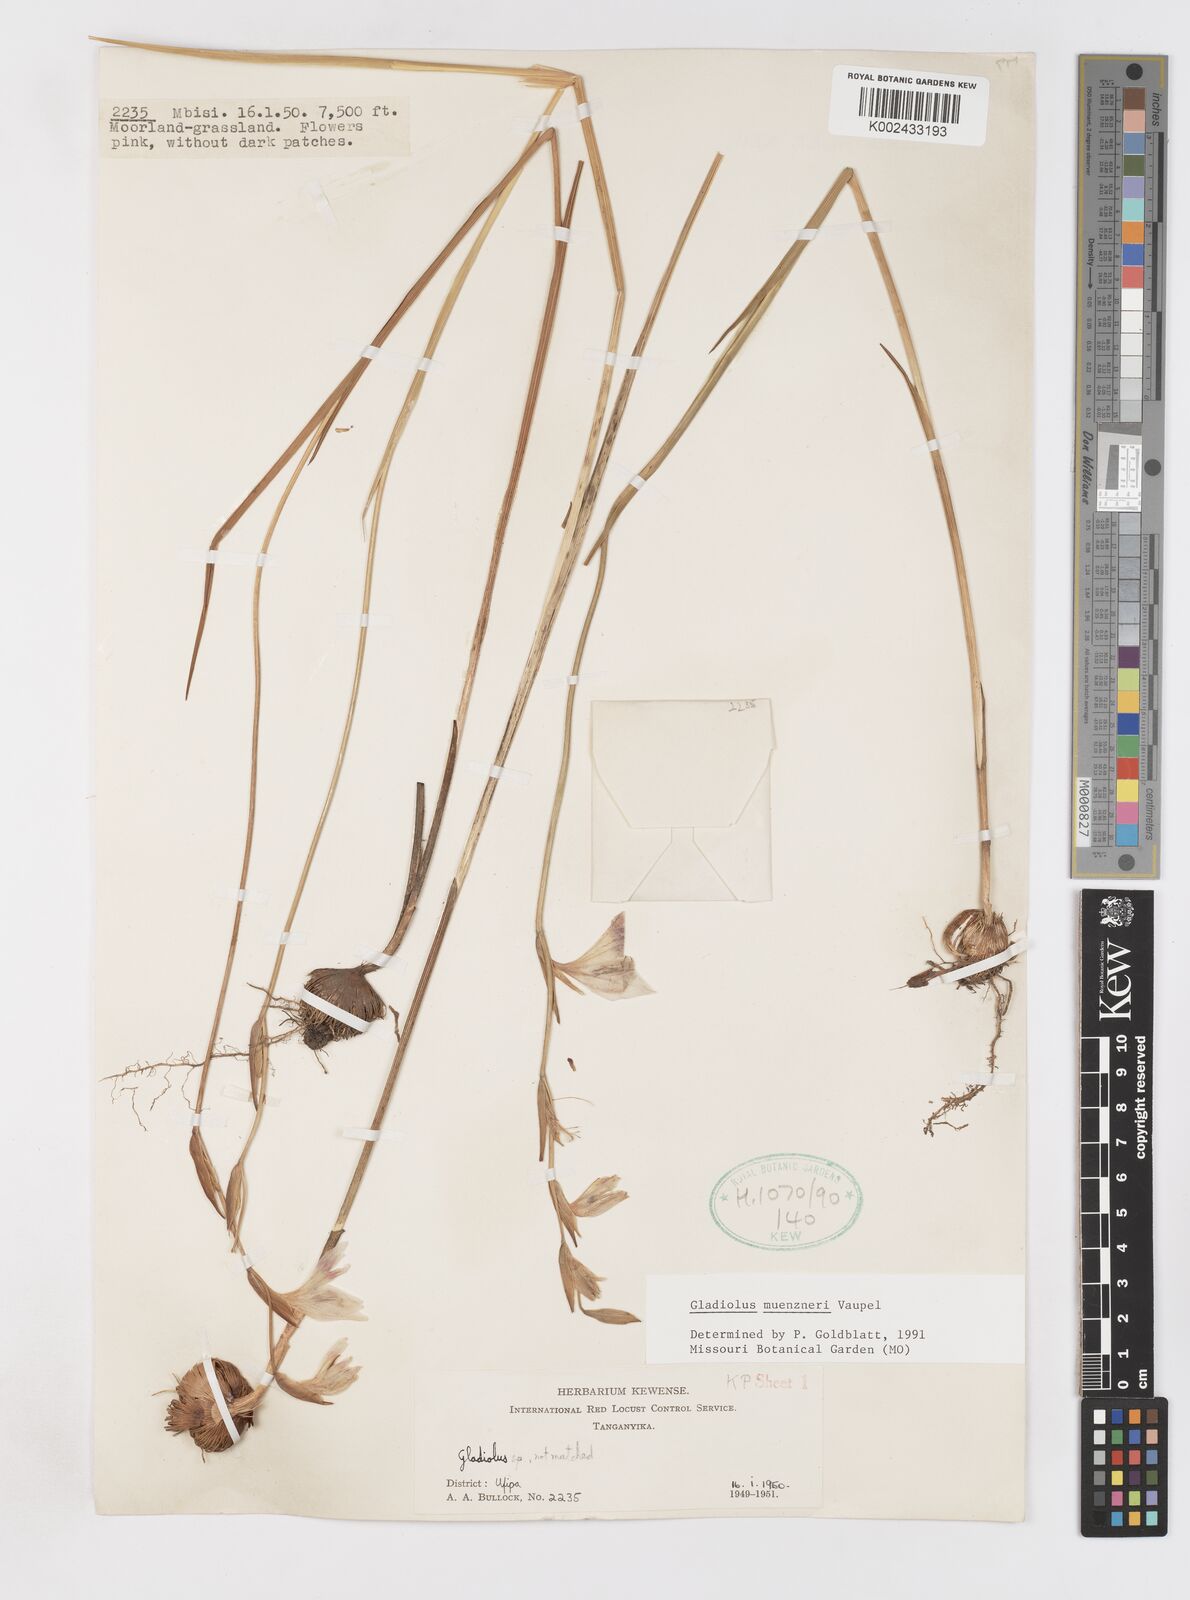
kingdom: Plantae
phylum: Tracheophyta
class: Liliopsida
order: Asparagales
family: Iridaceae
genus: Gladiolus
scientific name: Gladiolus muenzneri
